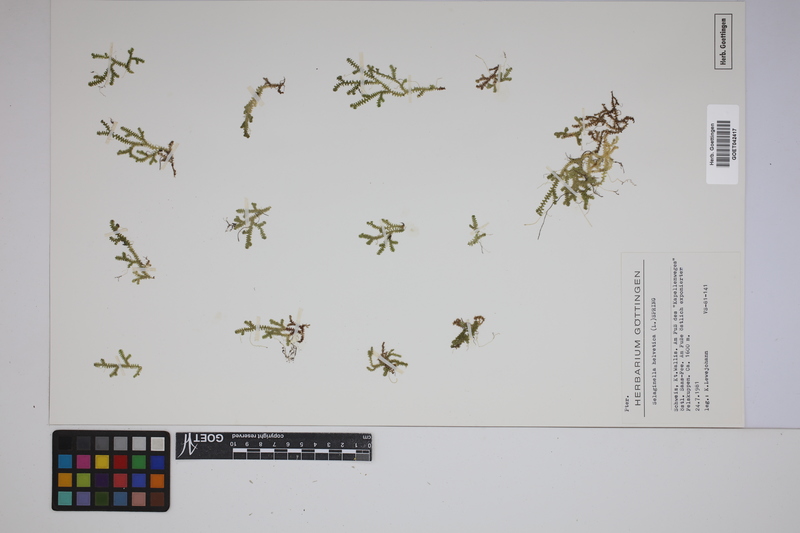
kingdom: Plantae
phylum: Tracheophyta
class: Lycopodiopsida
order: Selaginellales
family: Selaginellaceae
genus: Selaginella
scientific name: Selaginella helvetica
